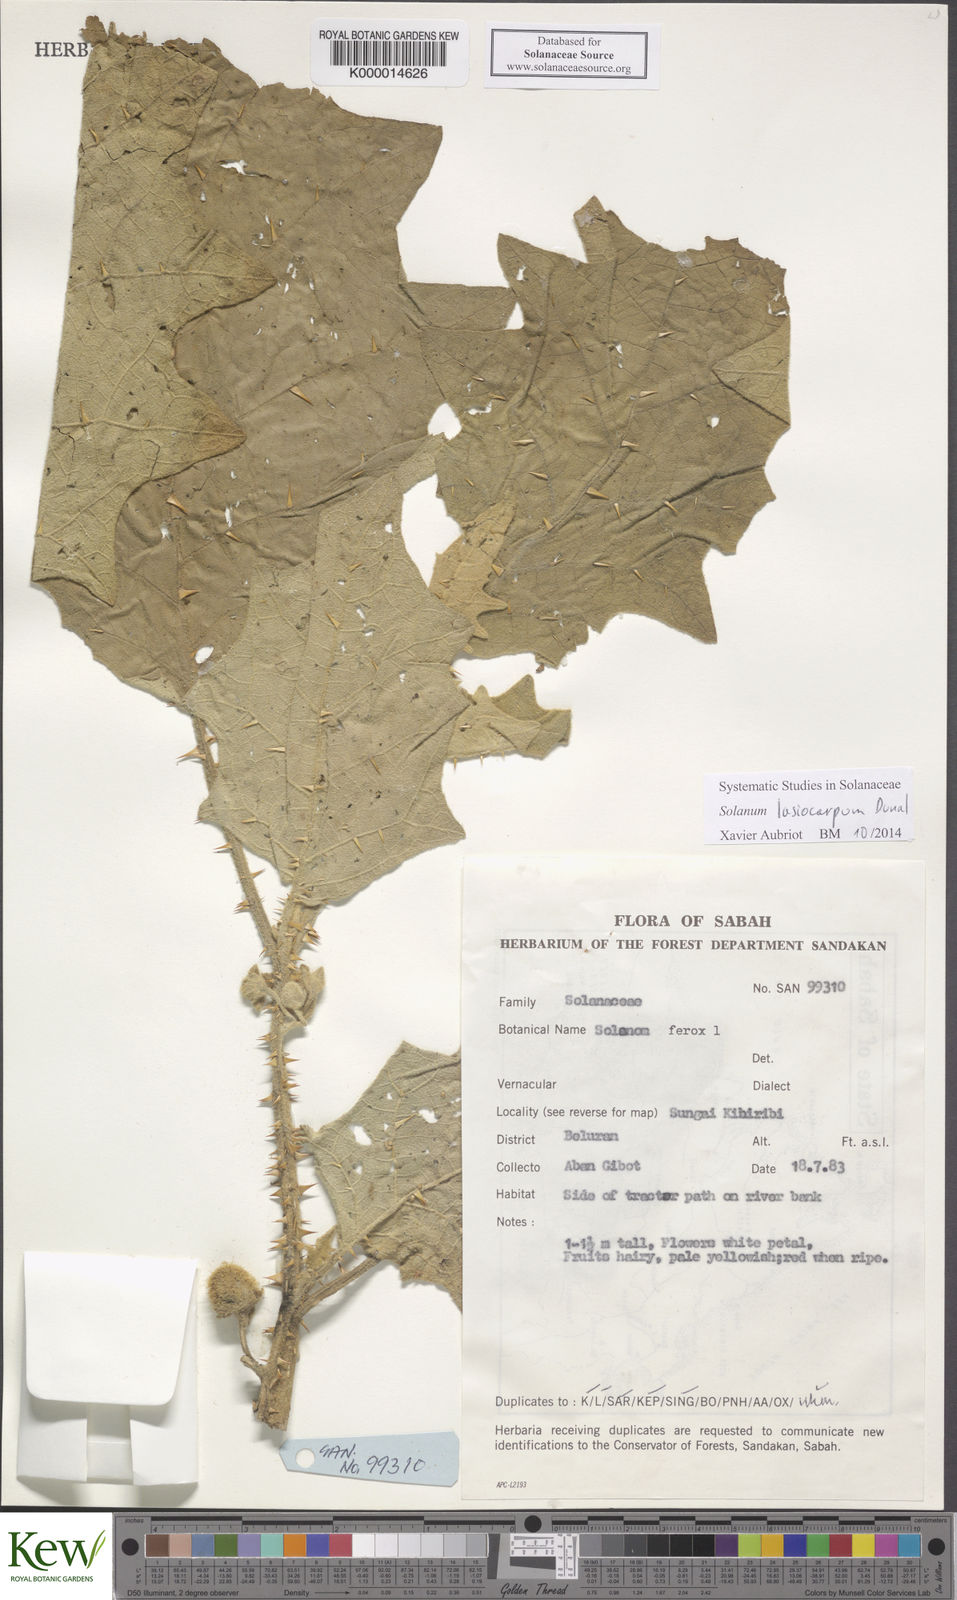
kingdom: Plantae
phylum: Tracheophyta
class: Magnoliopsida
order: Solanales
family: Solanaceae
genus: Solanum
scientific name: Solanum lasiocarpum
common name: Indian nightshade
